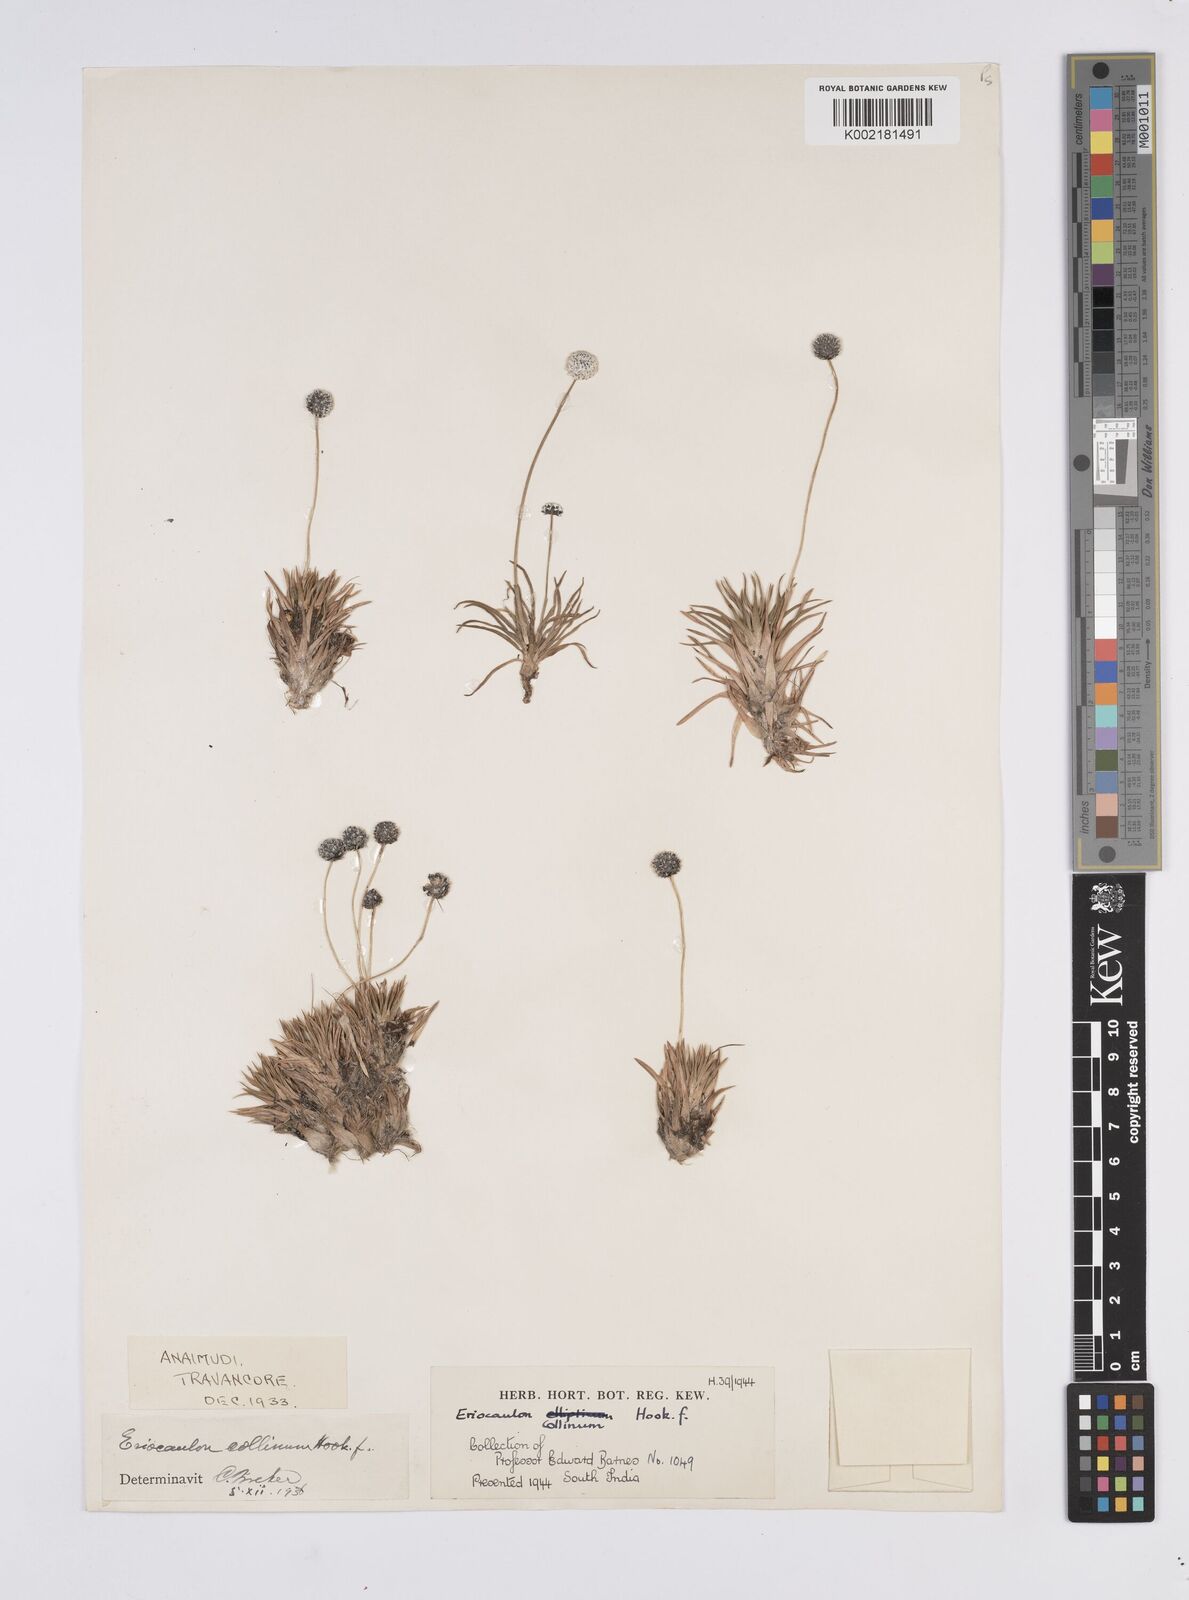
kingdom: Plantae
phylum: Tracheophyta
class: Liliopsida
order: Poales
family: Eriocaulaceae
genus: Eriocaulon
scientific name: Eriocaulon longicuspe
